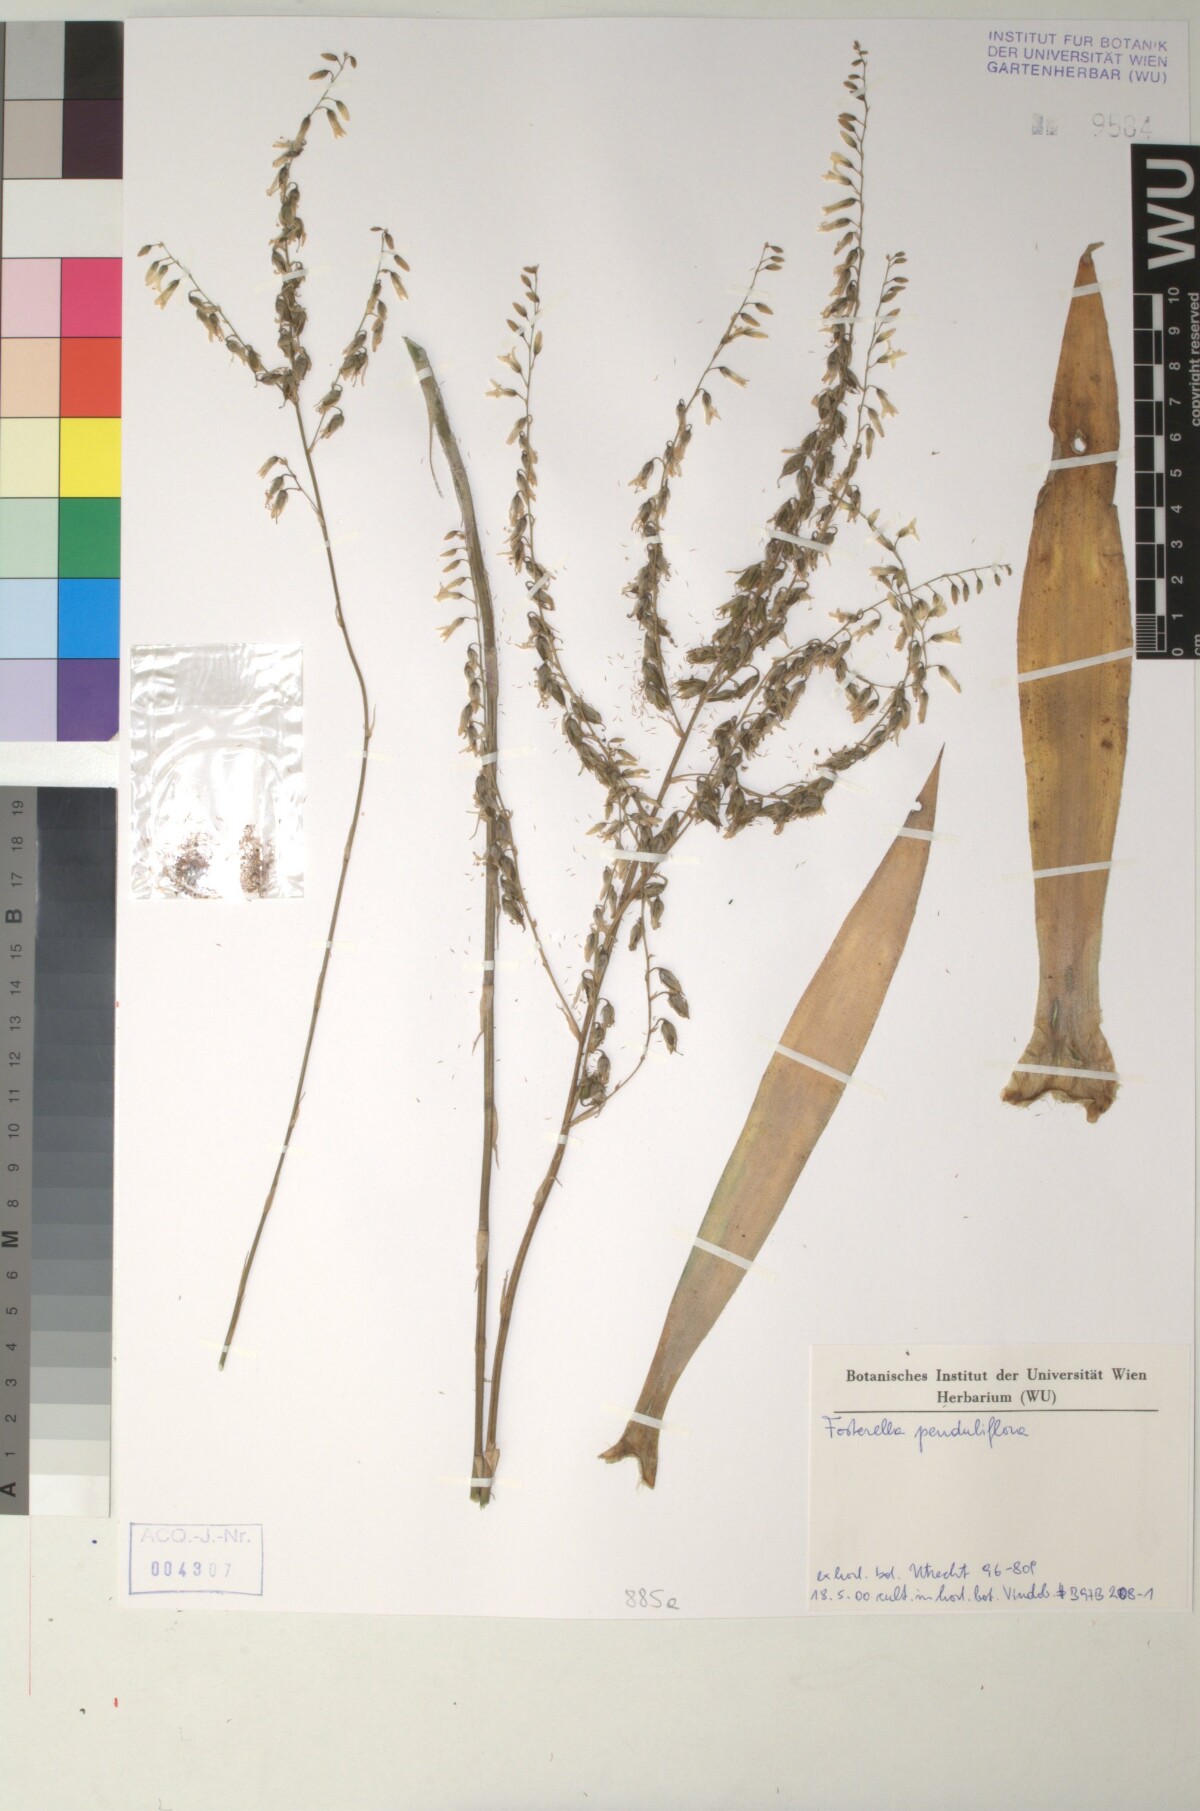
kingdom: Plantae
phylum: Tracheophyta
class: Liliopsida
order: Poales
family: Bromeliaceae
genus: Fosterella
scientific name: Fosterella penduliflora
